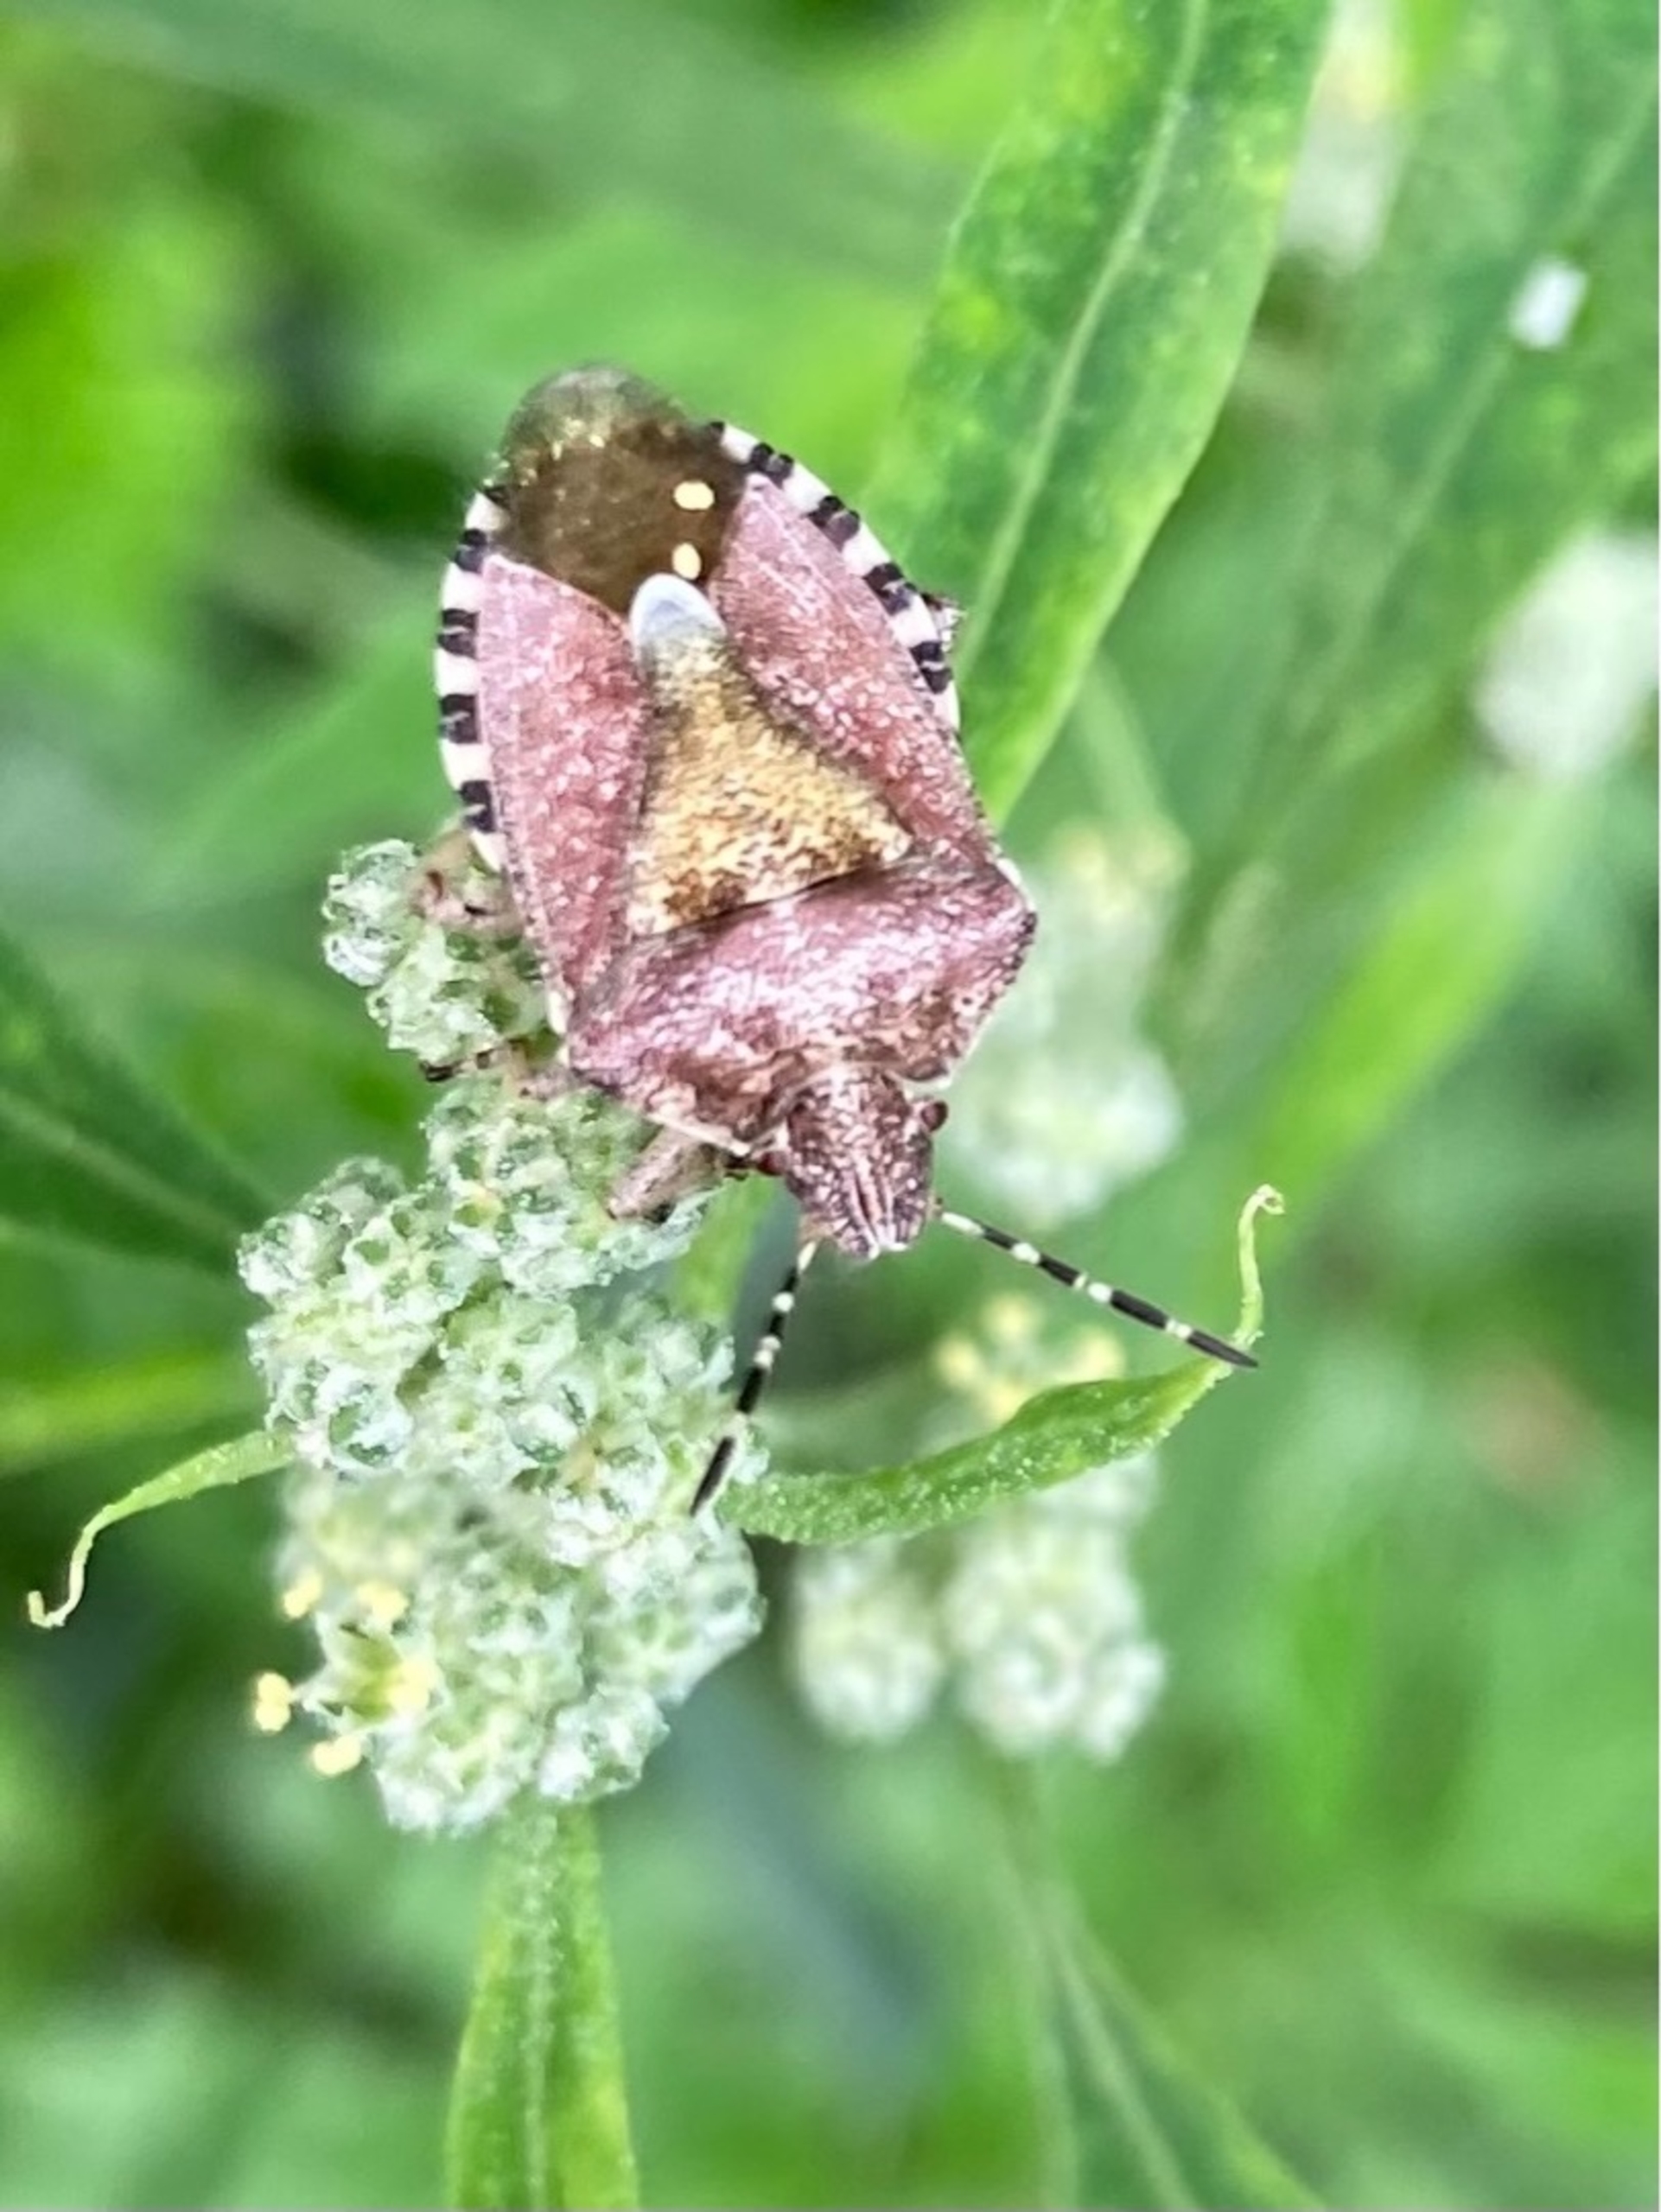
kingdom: Animalia
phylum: Arthropoda
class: Insecta
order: Hemiptera
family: Pentatomidae
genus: Dolycoris
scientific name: Dolycoris baccarum
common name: Almindelig bærtæge
